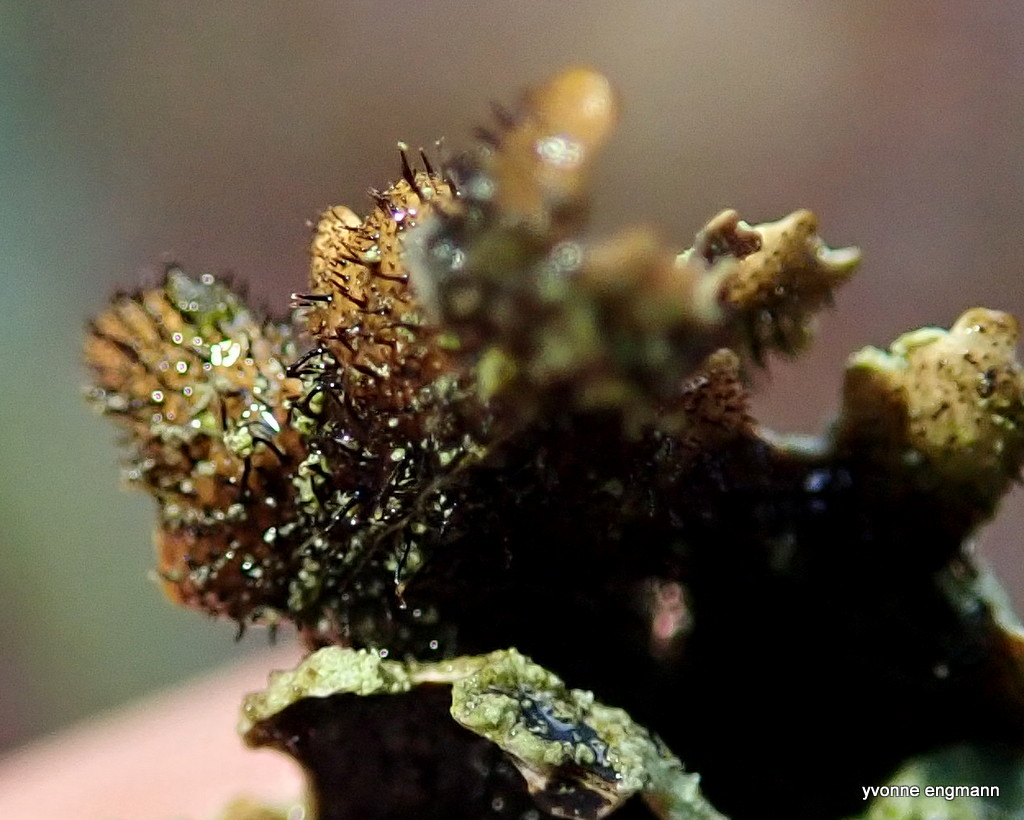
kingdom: Fungi
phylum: Ascomycota
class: Lecanoromycetes
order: Lecanorales
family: Parmeliaceae
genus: Parmelia
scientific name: Parmelia sulcata
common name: rynket skållav
